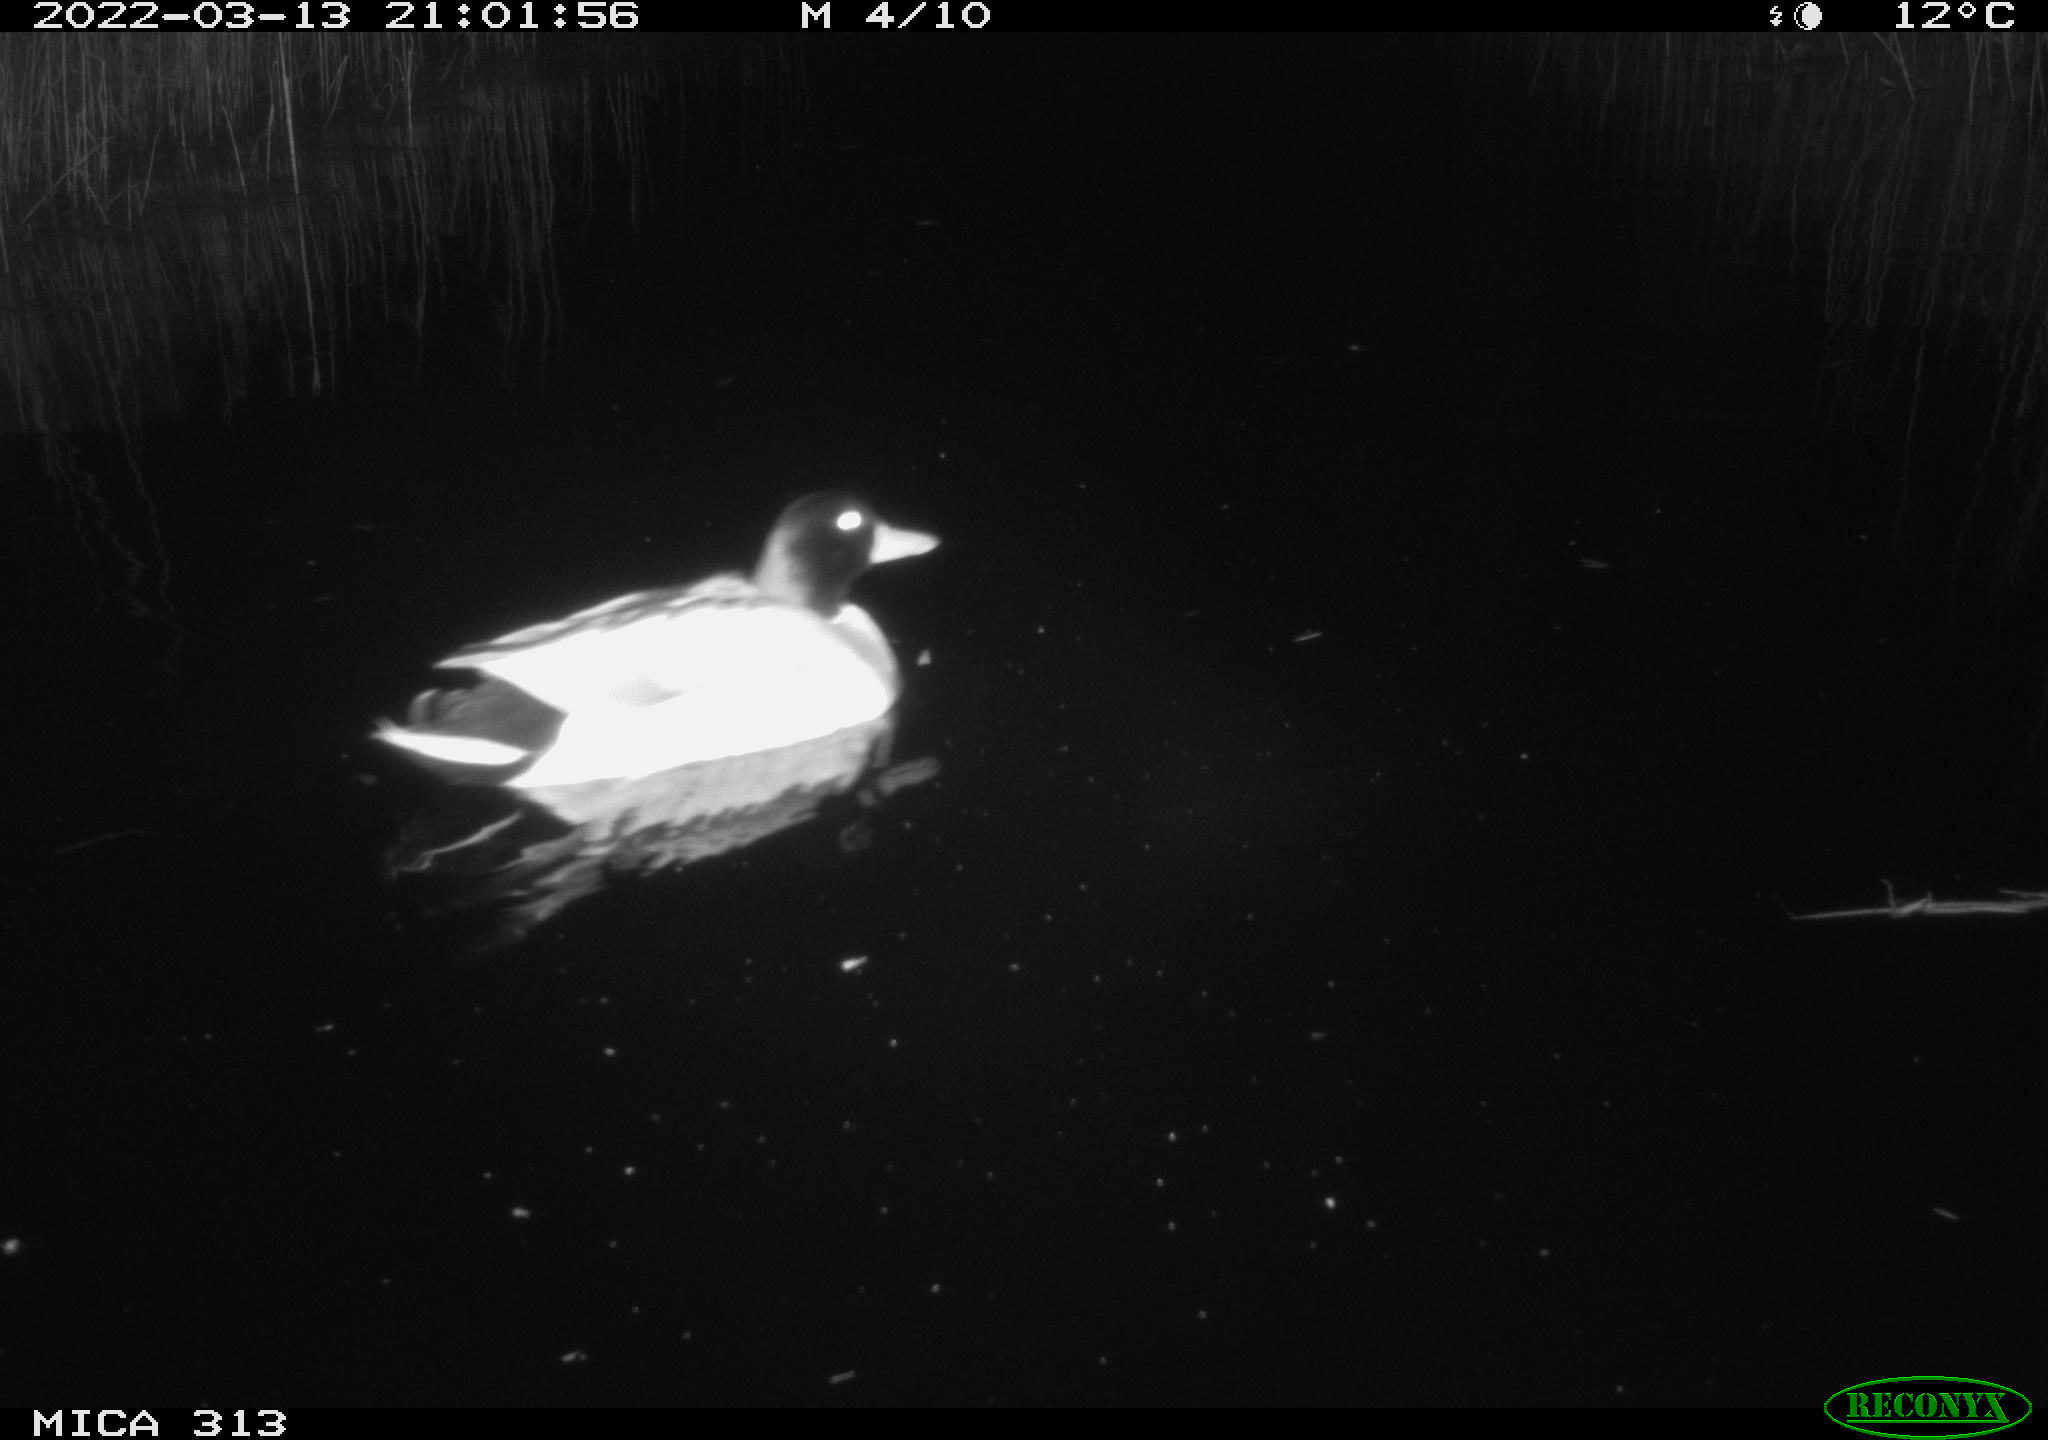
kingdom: Animalia
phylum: Chordata
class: Aves
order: Anseriformes
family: Anatidae
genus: Anas
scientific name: Anas platyrhynchos
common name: Mallard
